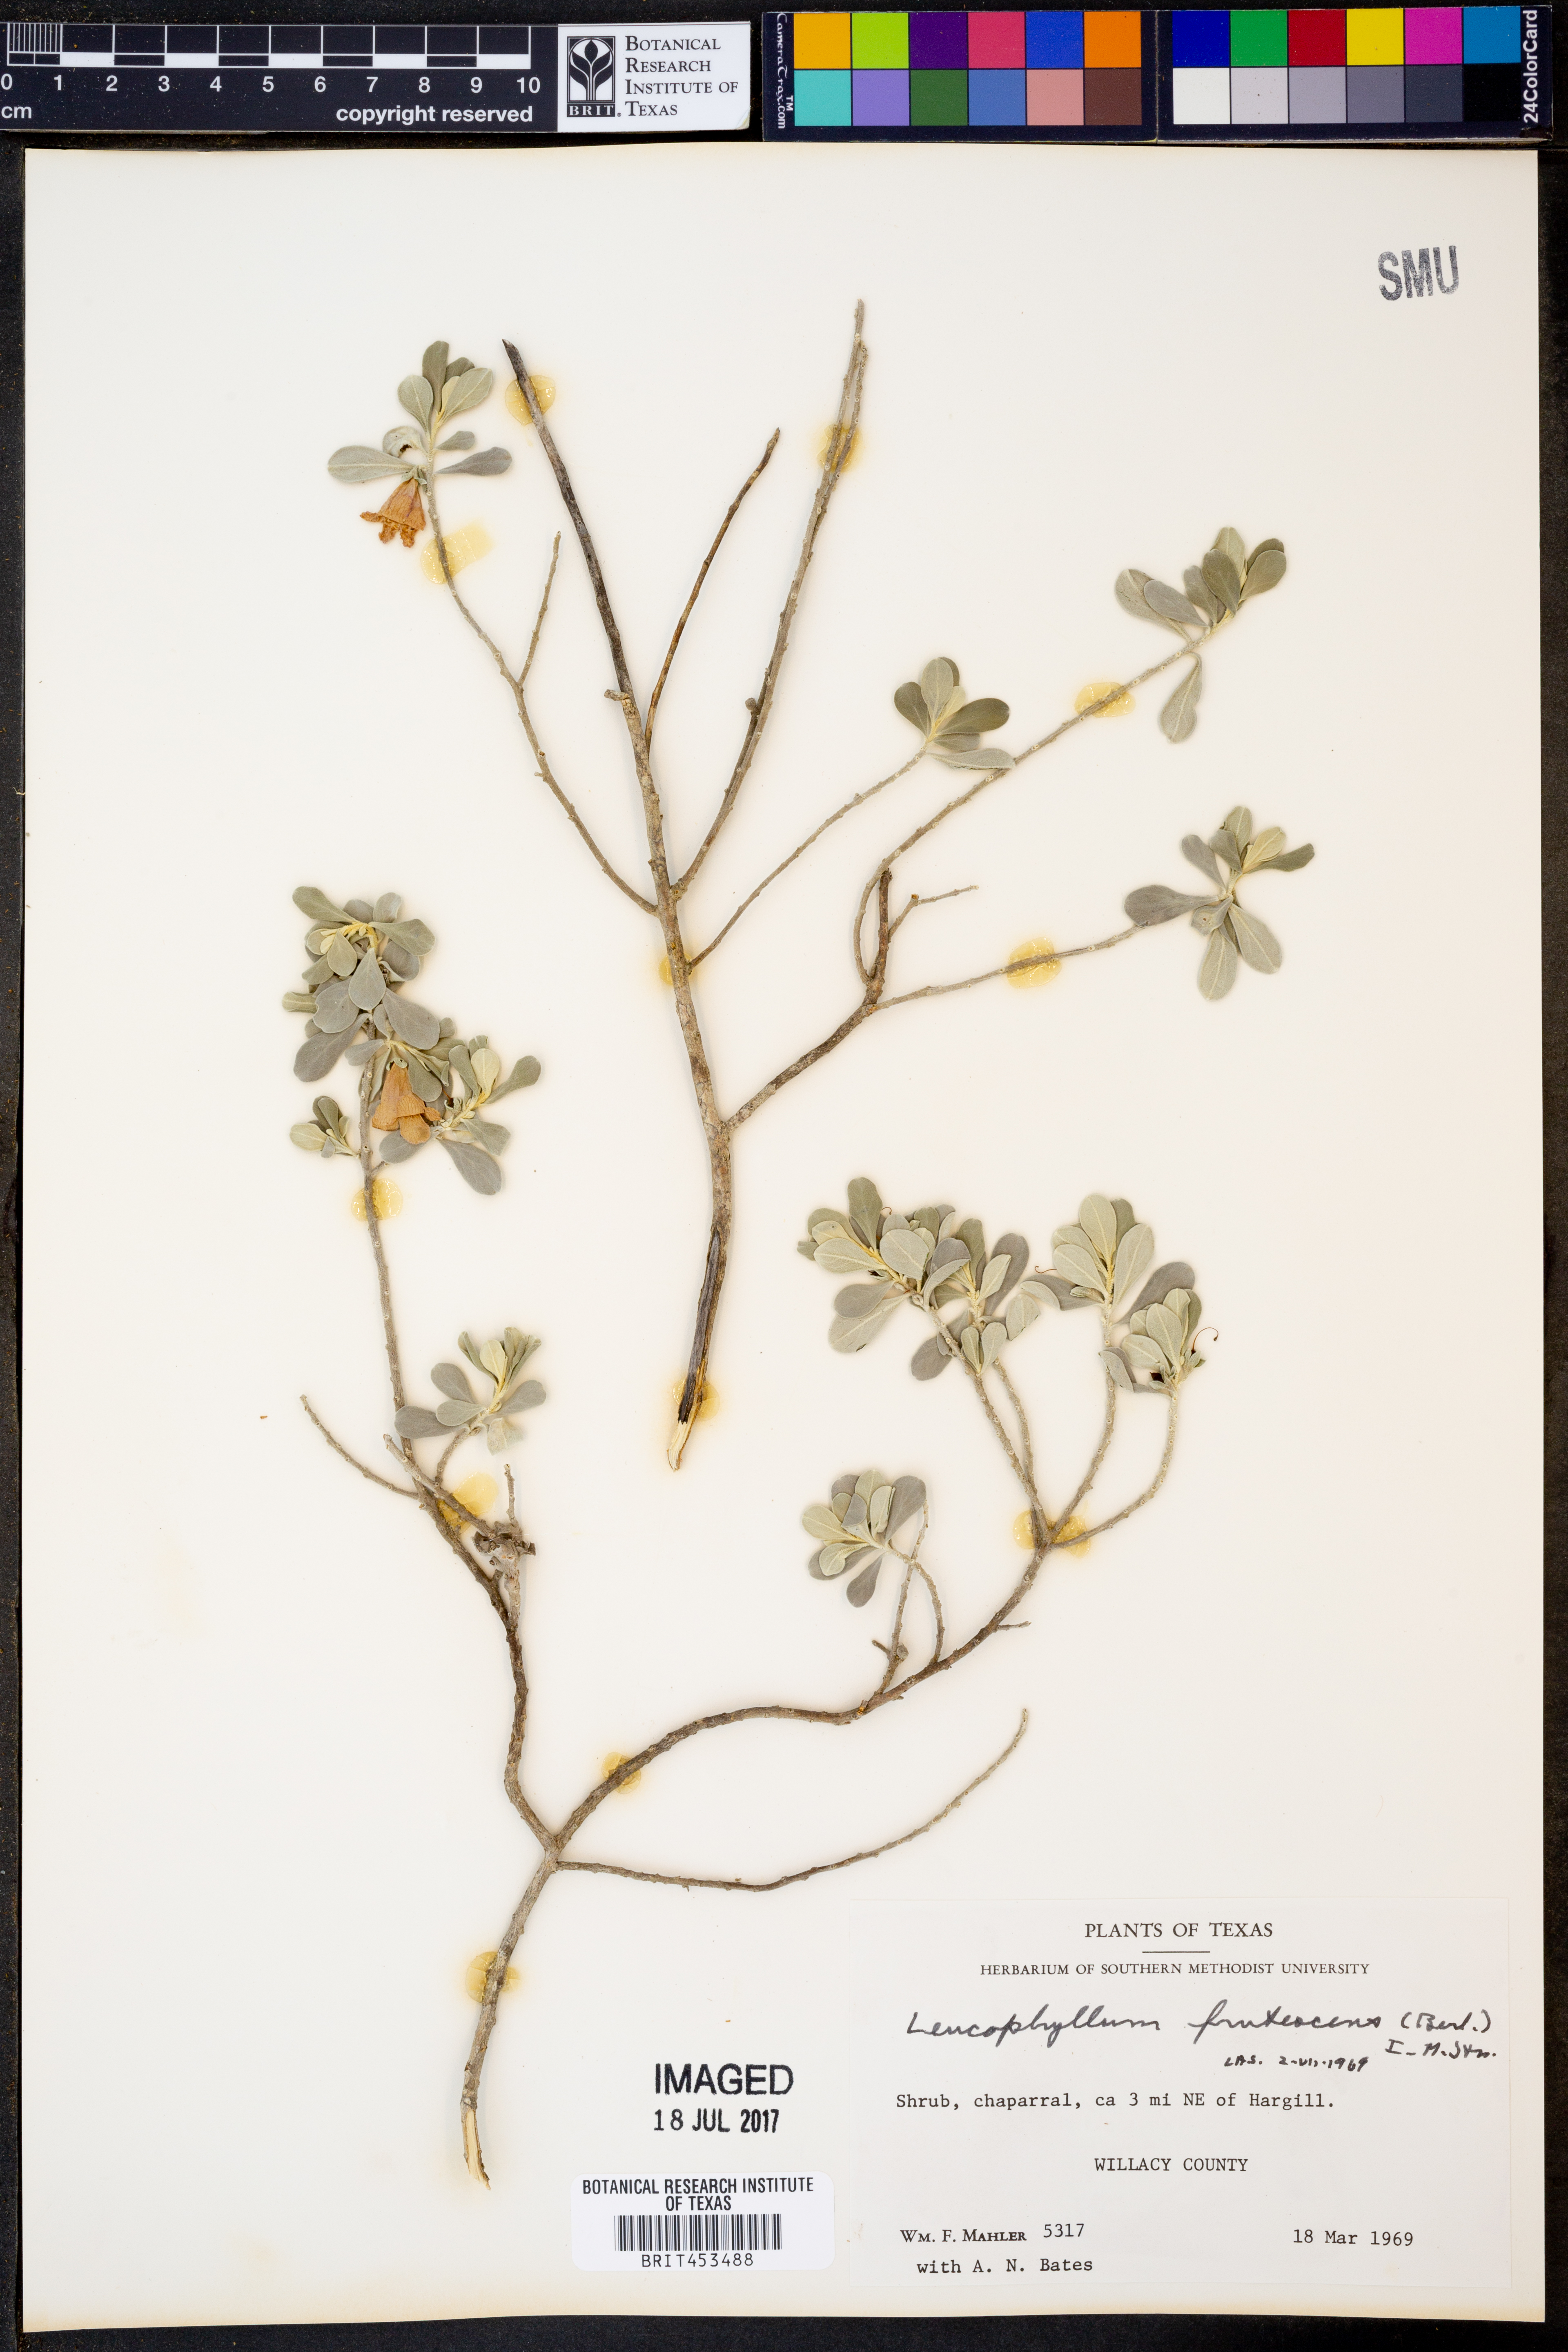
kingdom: Plantae
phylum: Tracheophyta
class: Magnoliopsida
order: Lamiales
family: Scrophulariaceae
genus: Leucophyllum
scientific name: Leucophyllum frutescens
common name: Texas silverleaf
